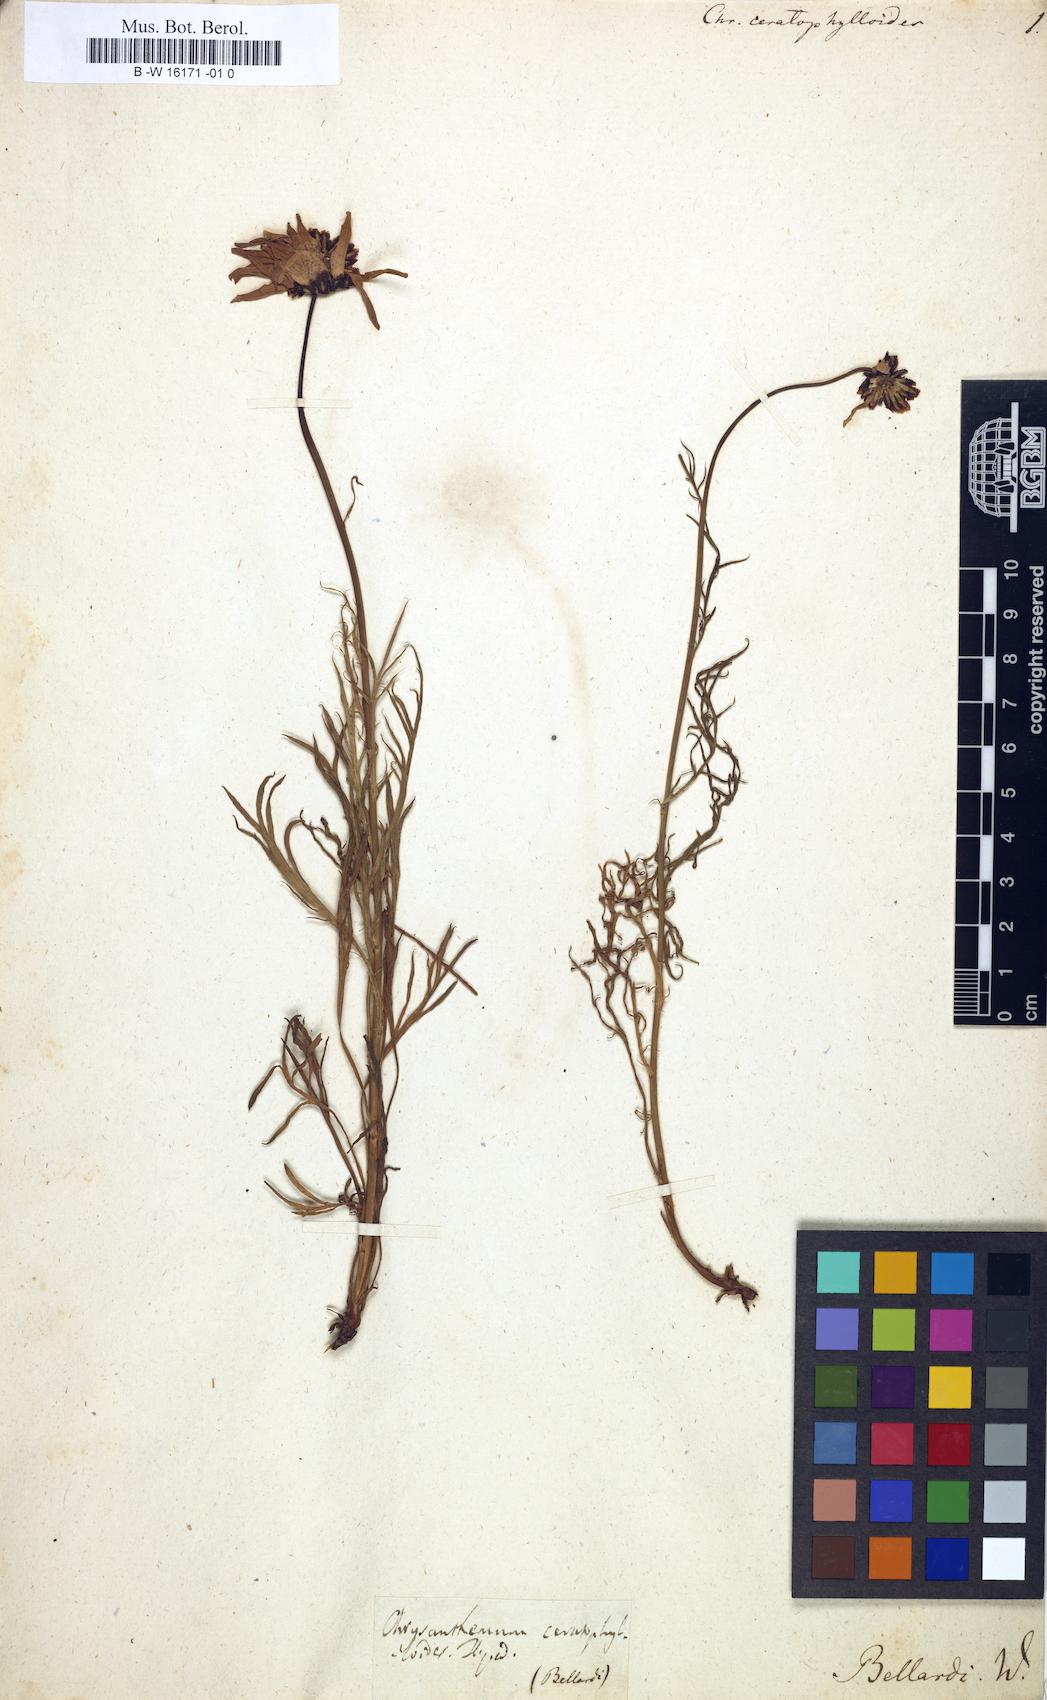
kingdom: Plantae
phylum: Tracheophyta
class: Magnoliopsida
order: Asterales
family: Asteraceae
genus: Leucanthemum
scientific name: Leucanthemum coronopifolium
